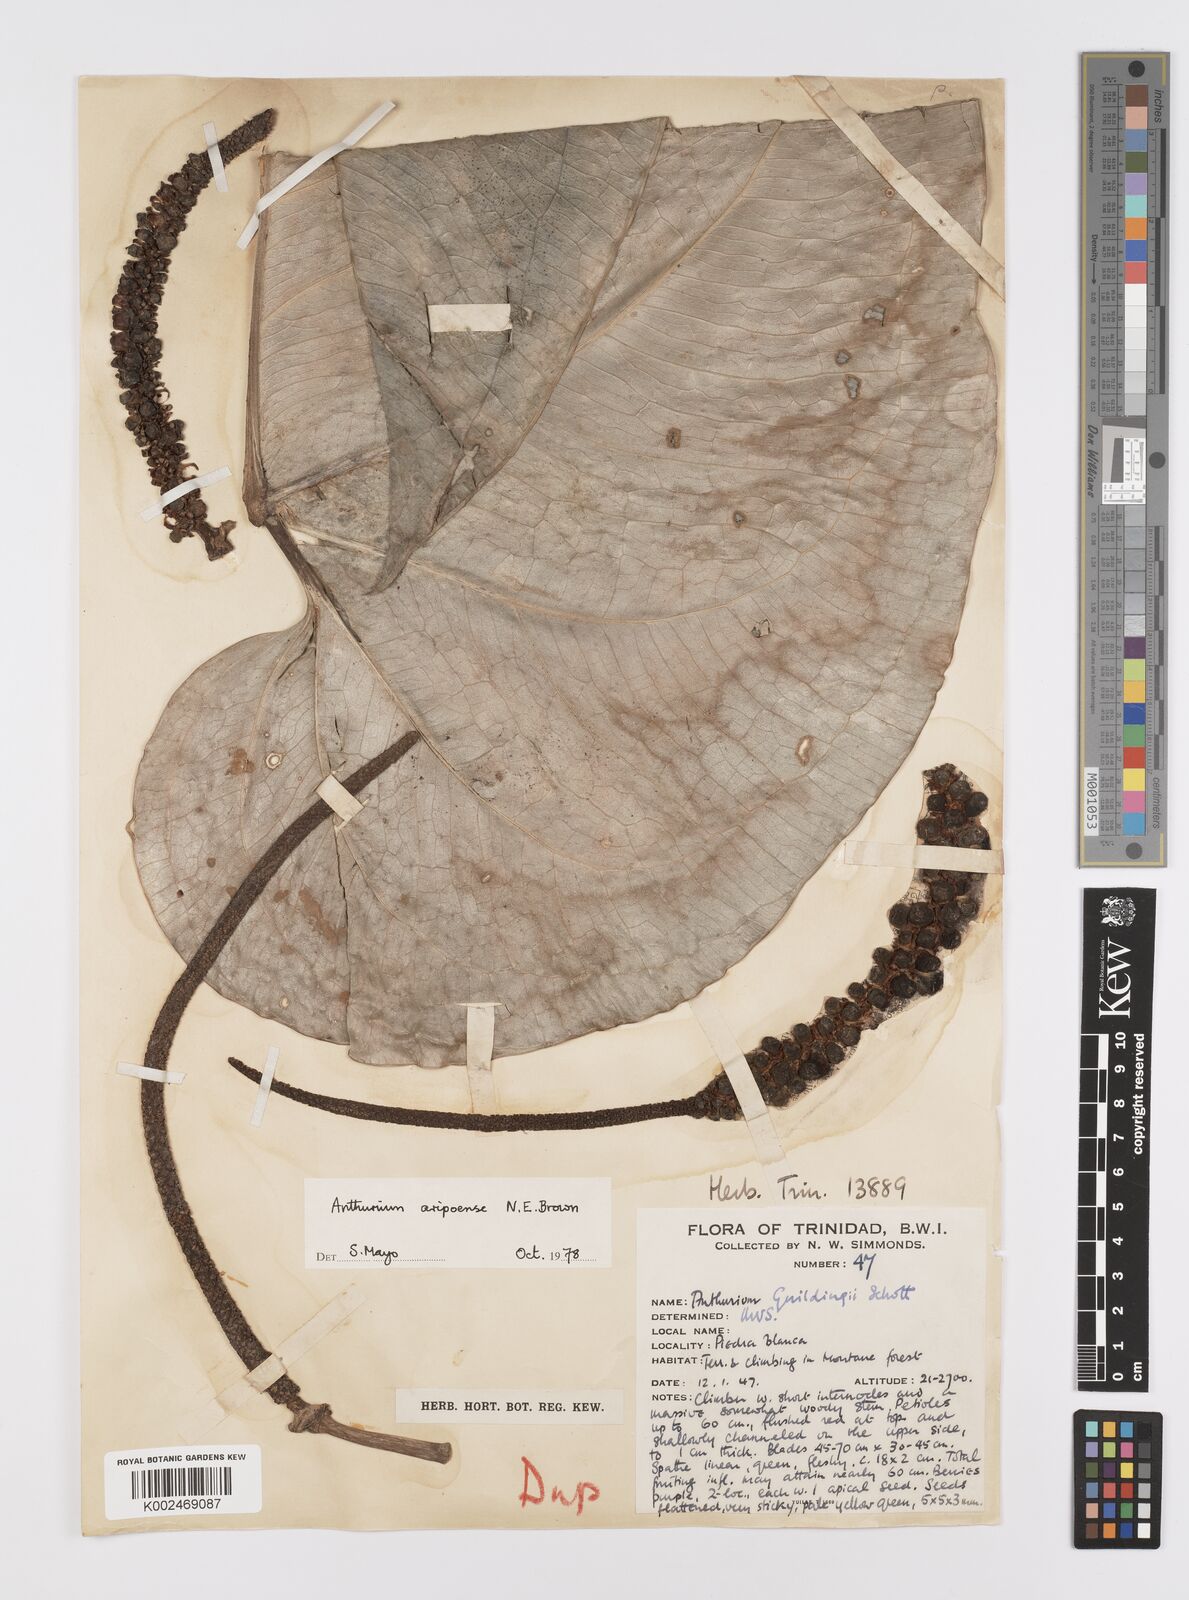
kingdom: Plantae
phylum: Tracheophyta
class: Liliopsida
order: Alismatales
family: Araceae
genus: Anthurium
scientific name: Anthurium aripoense
